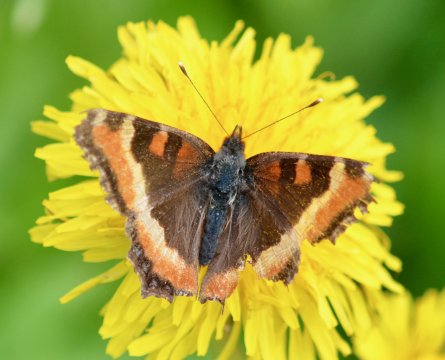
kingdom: Animalia
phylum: Arthropoda
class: Insecta
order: Lepidoptera
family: Nymphalidae
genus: Aglais
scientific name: Aglais milberti
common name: Milbert's Tortoiseshell
